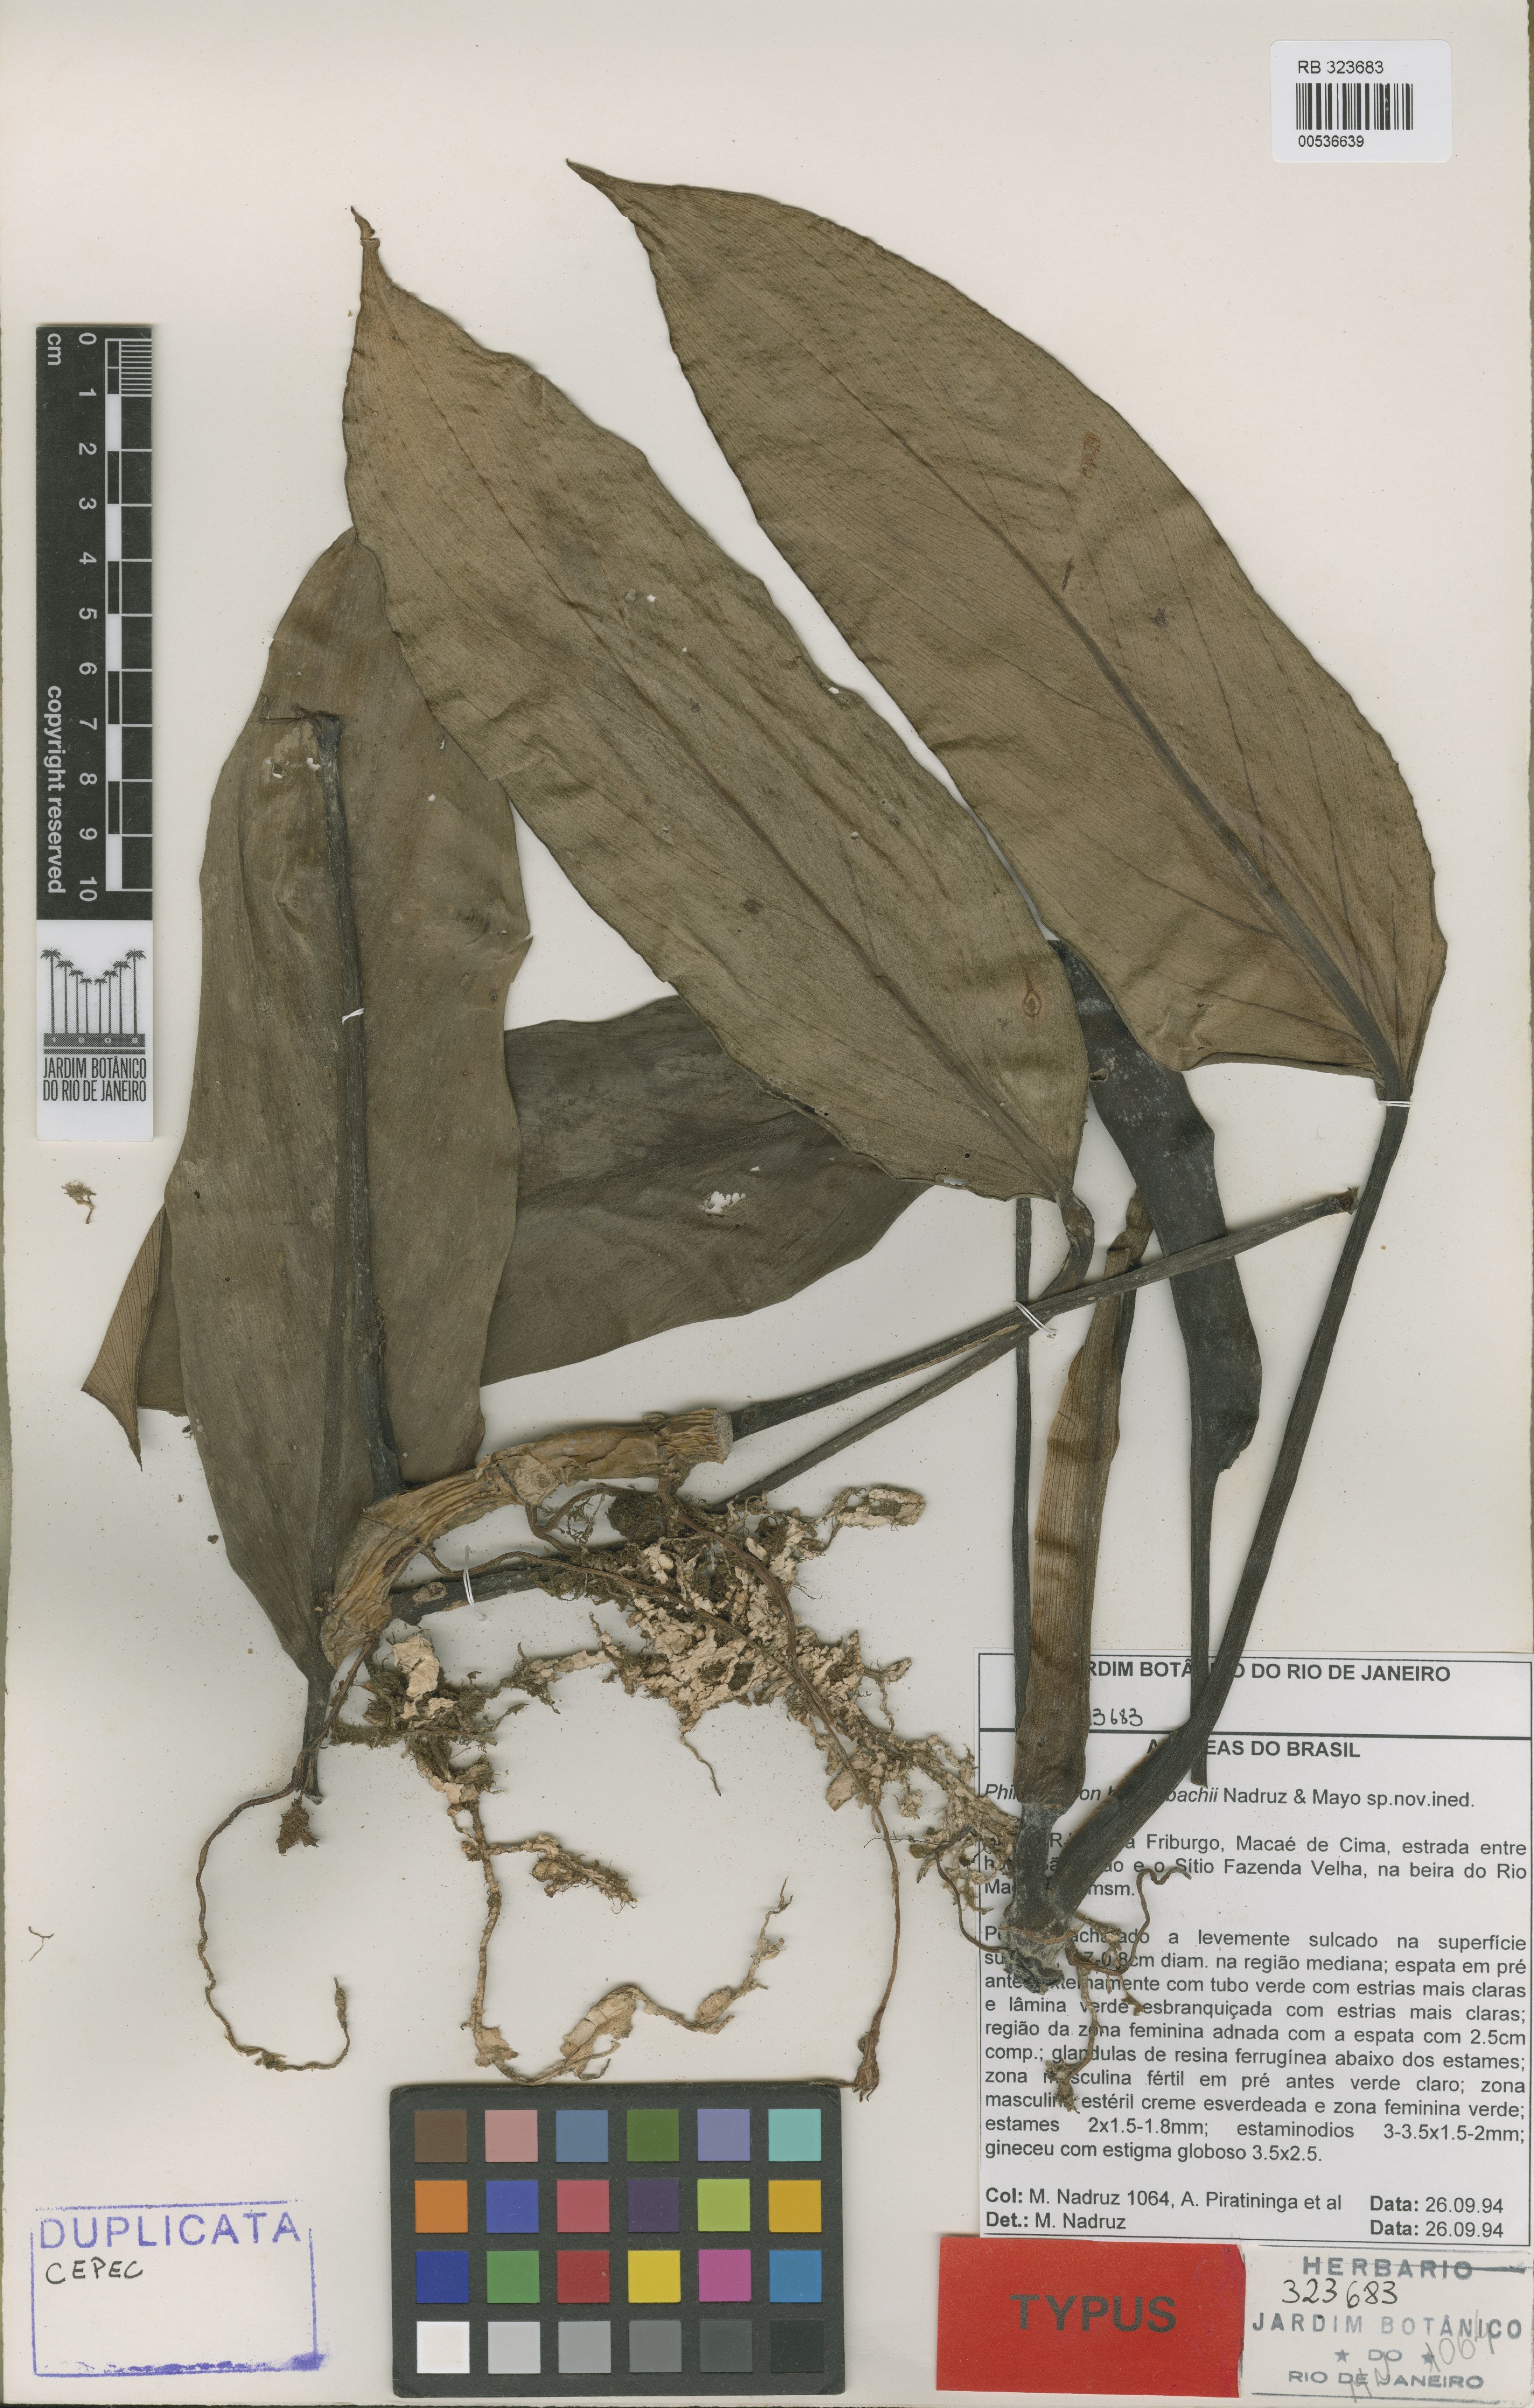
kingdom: Plantae
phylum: Tracheophyta
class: Liliopsida
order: Alismatales
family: Araceae
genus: Philodendron
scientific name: Philodendron hatschbachii
